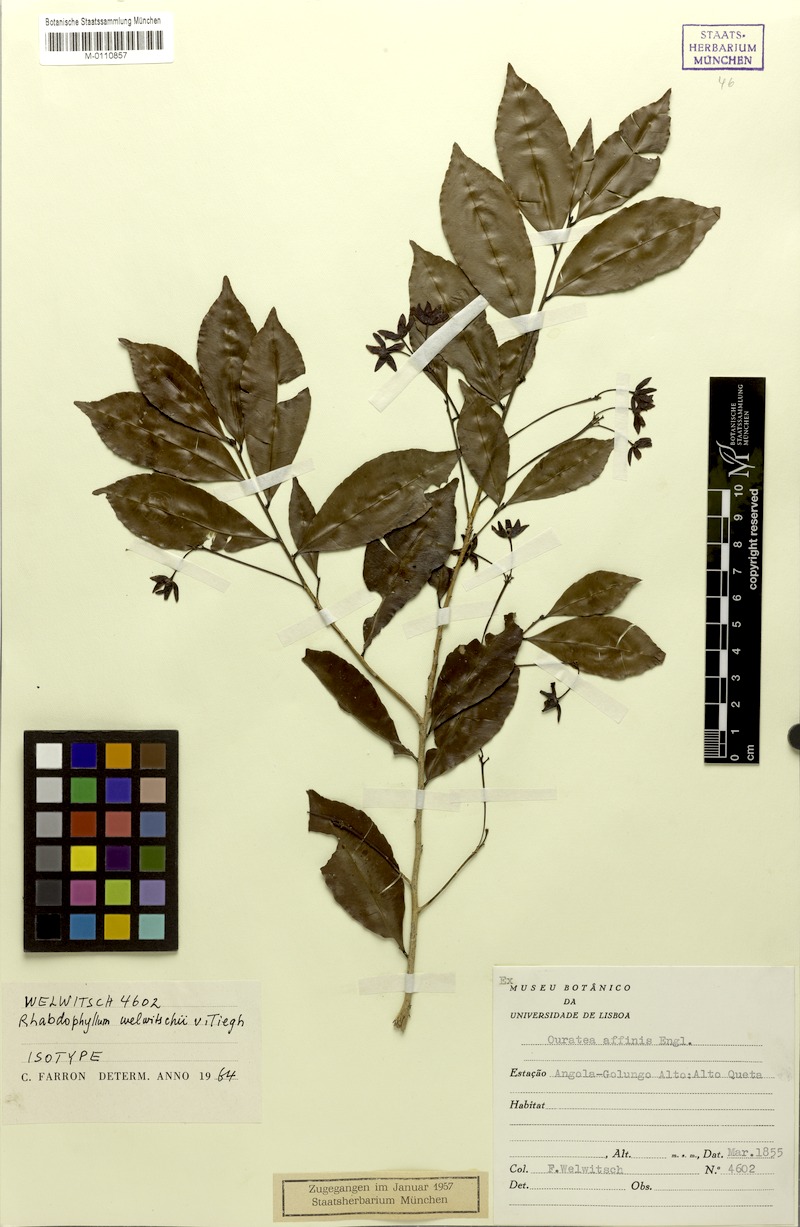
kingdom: Plantae
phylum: Tracheophyta
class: Magnoliopsida
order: Malpighiales
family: Ochnaceae
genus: Rhabdophyllum
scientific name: Rhabdophyllum welwitschii
